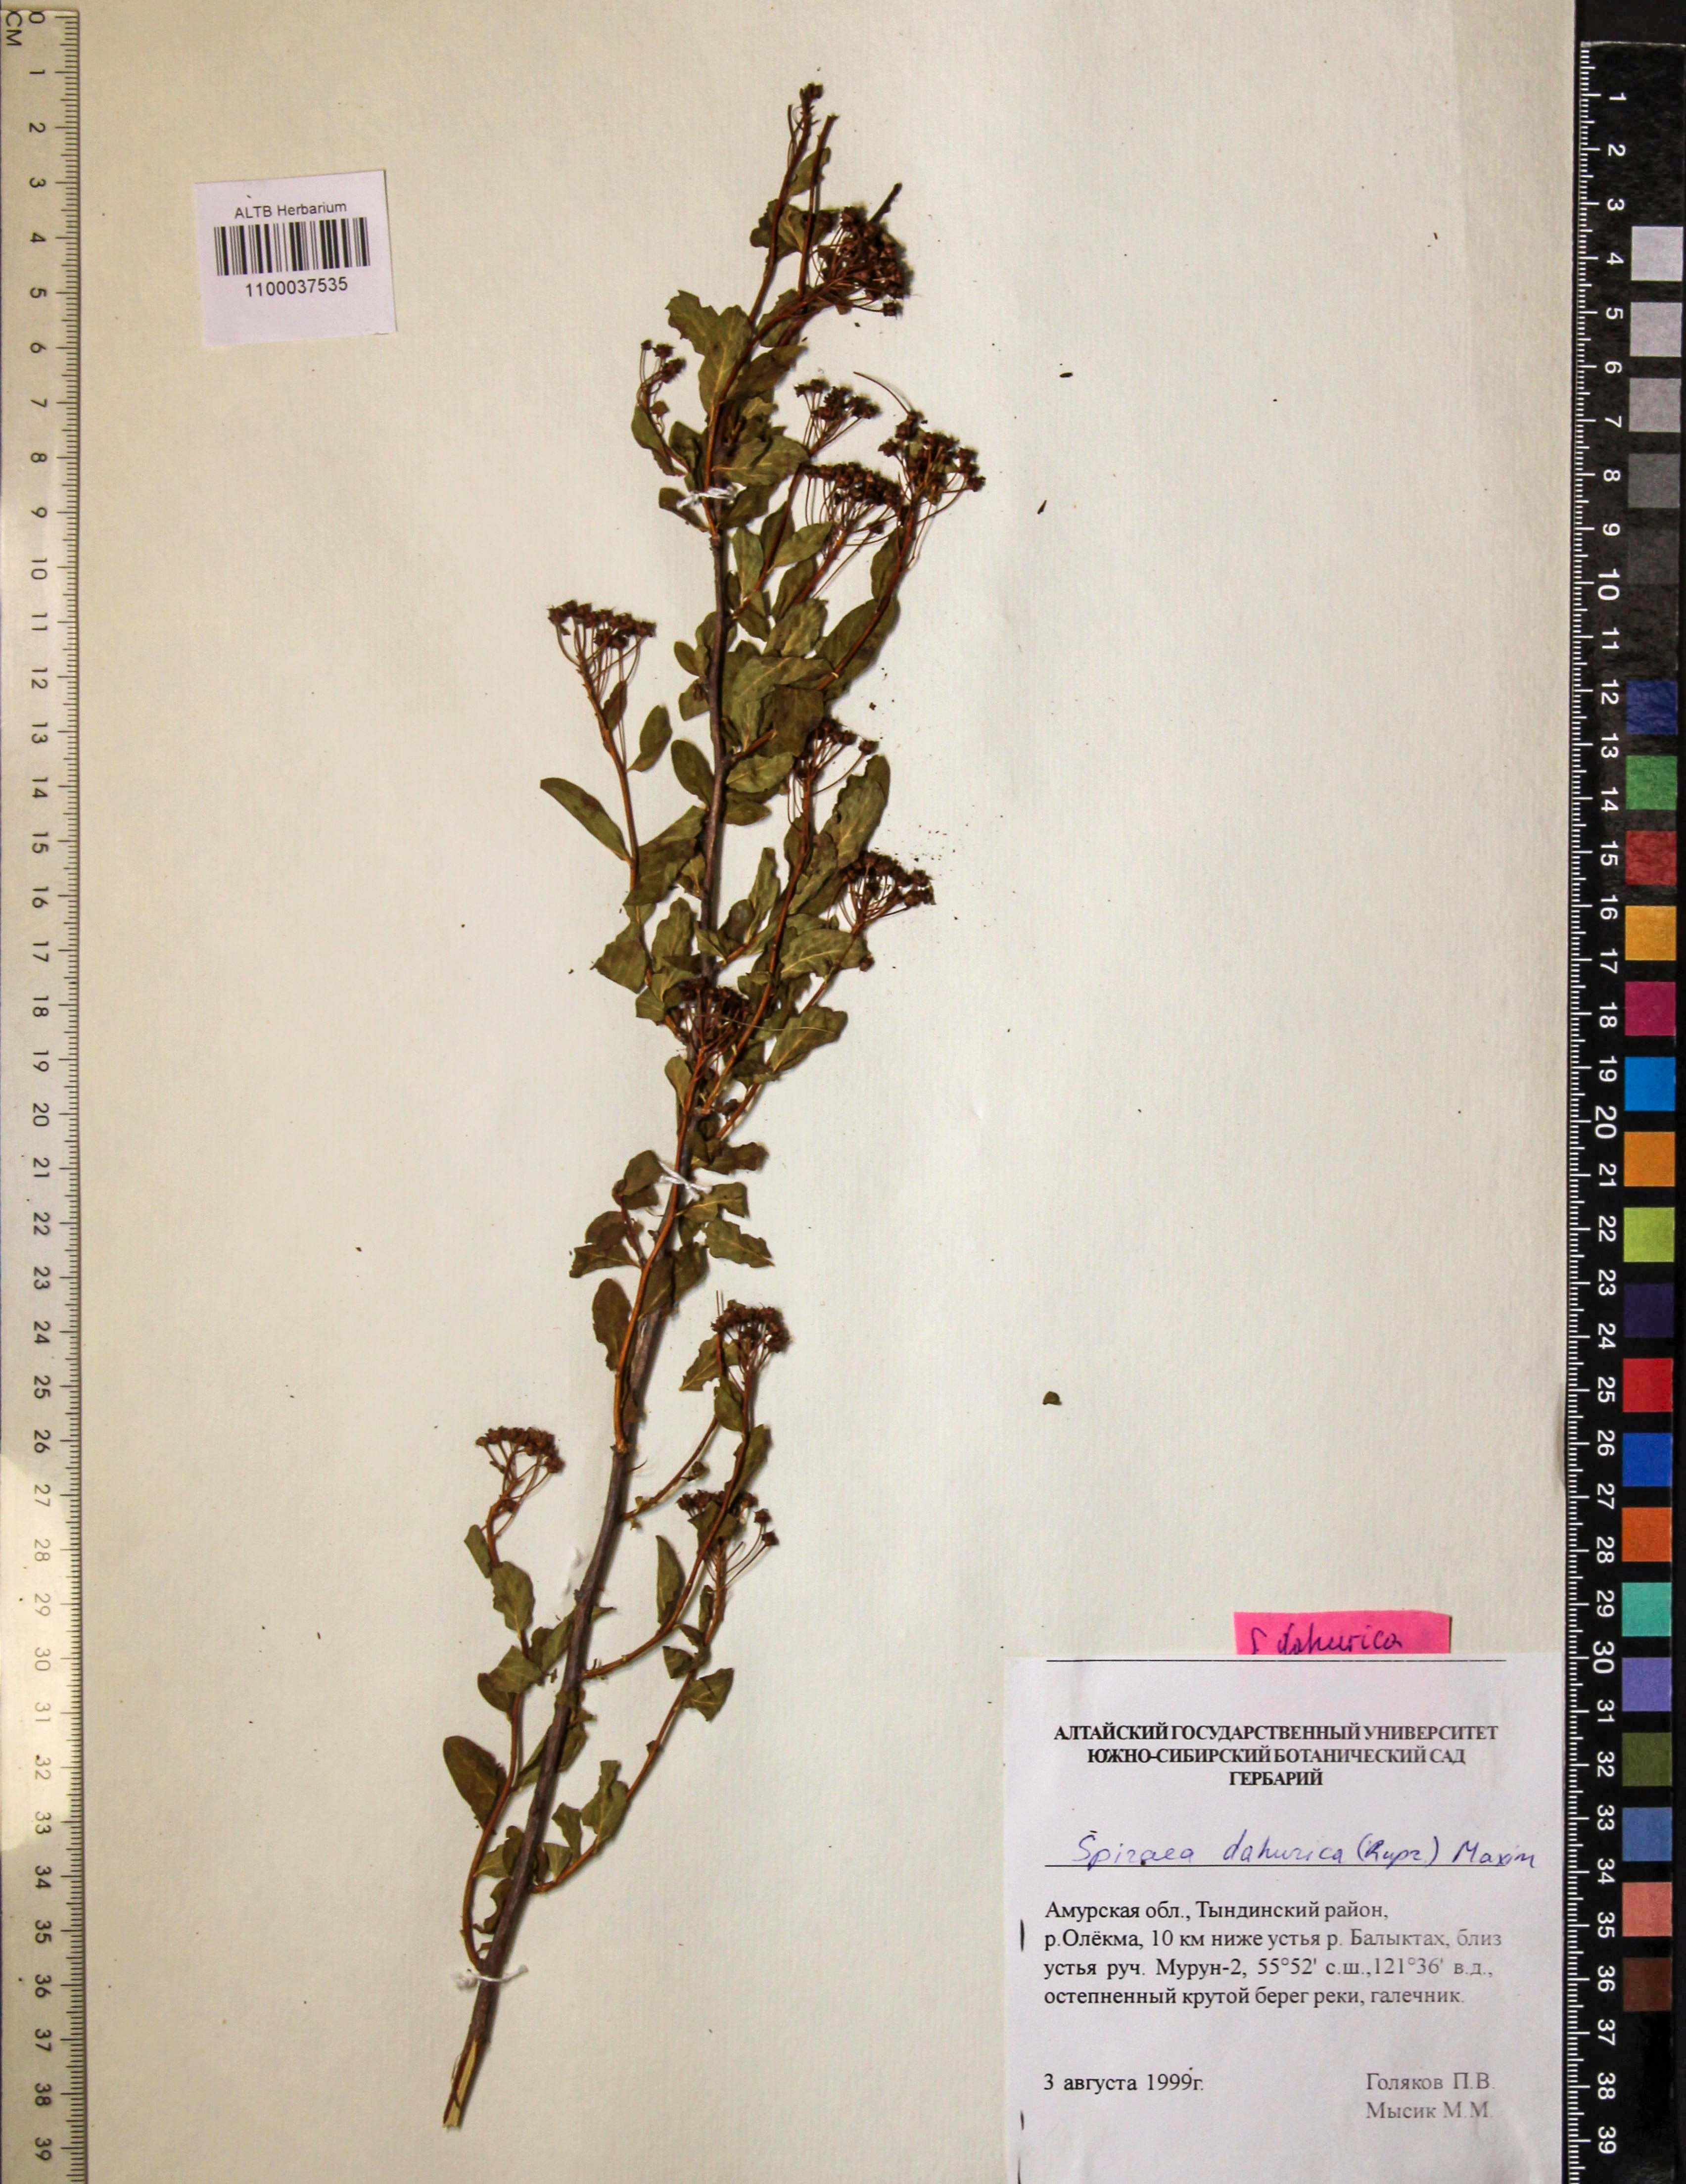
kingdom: Plantae
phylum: Tracheophyta
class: Magnoliopsida
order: Rosales
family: Rosaceae
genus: Spiraea
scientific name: Spiraea dahurica
